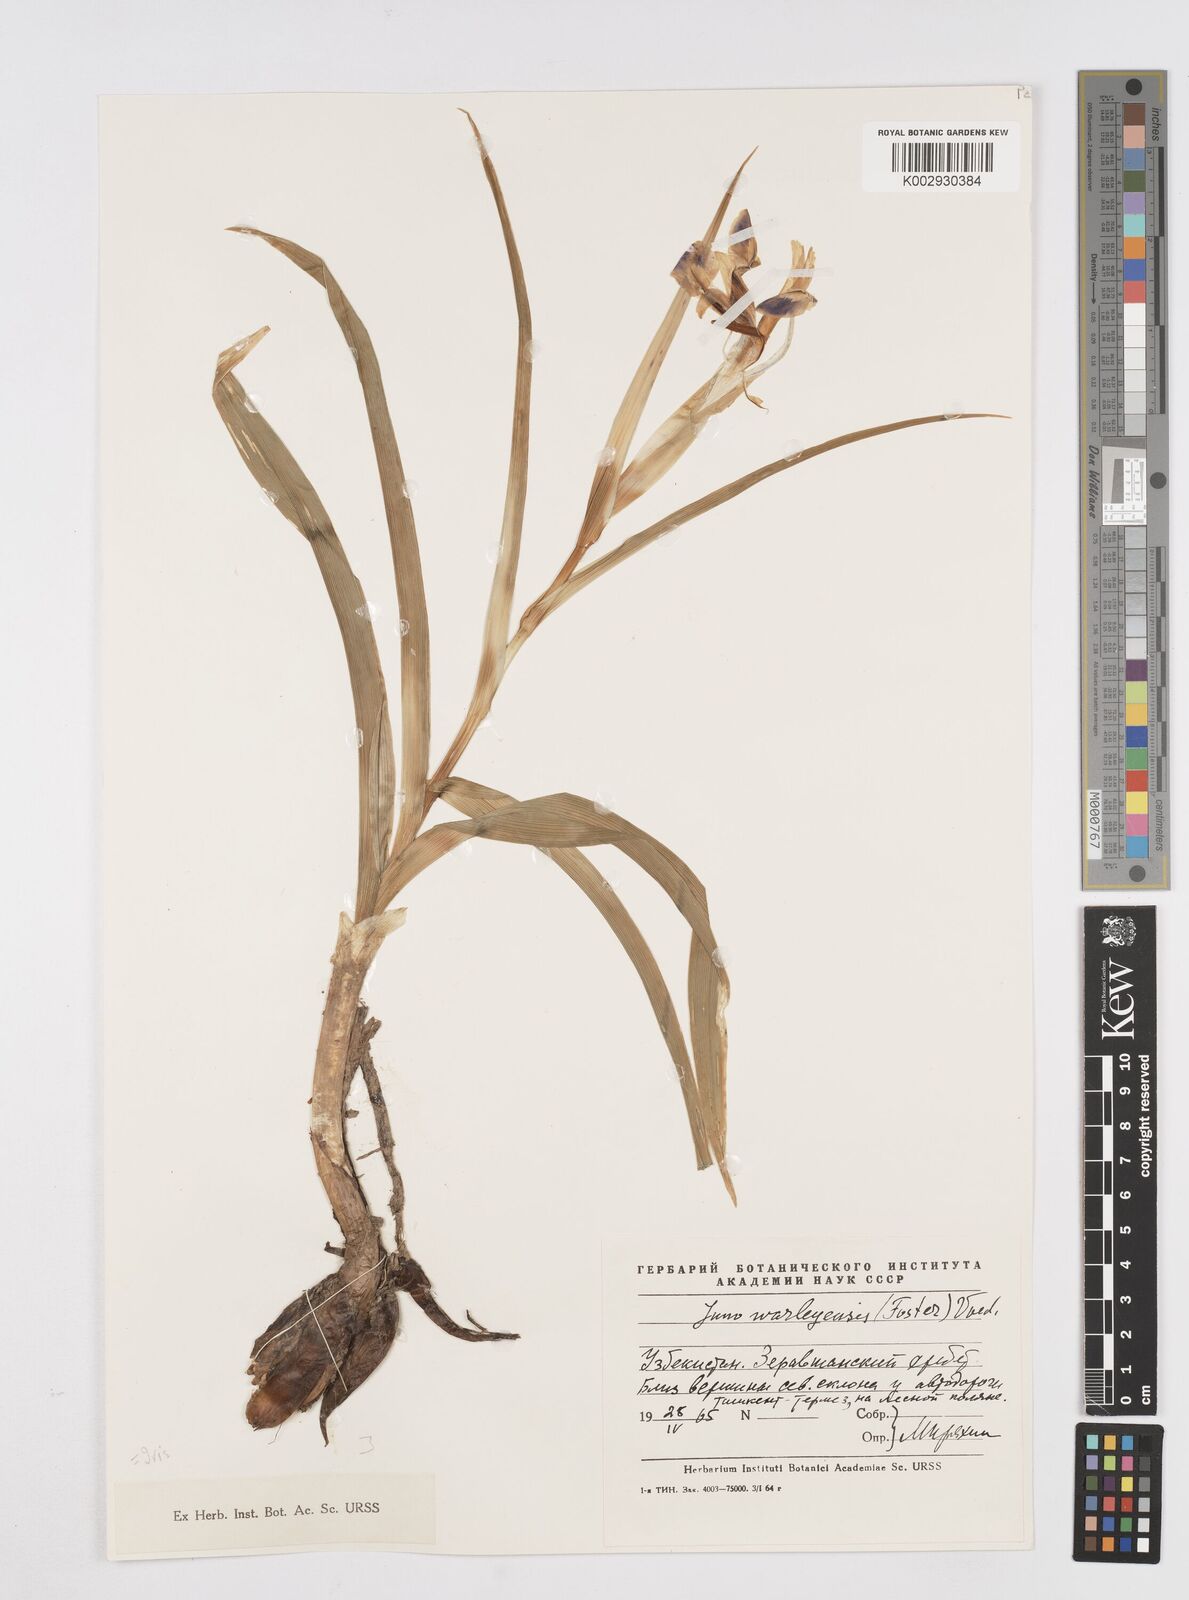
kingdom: Plantae
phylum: Tracheophyta
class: Liliopsida
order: Asparagales
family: Iridaceae
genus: Iris
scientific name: Iris warleyensis
